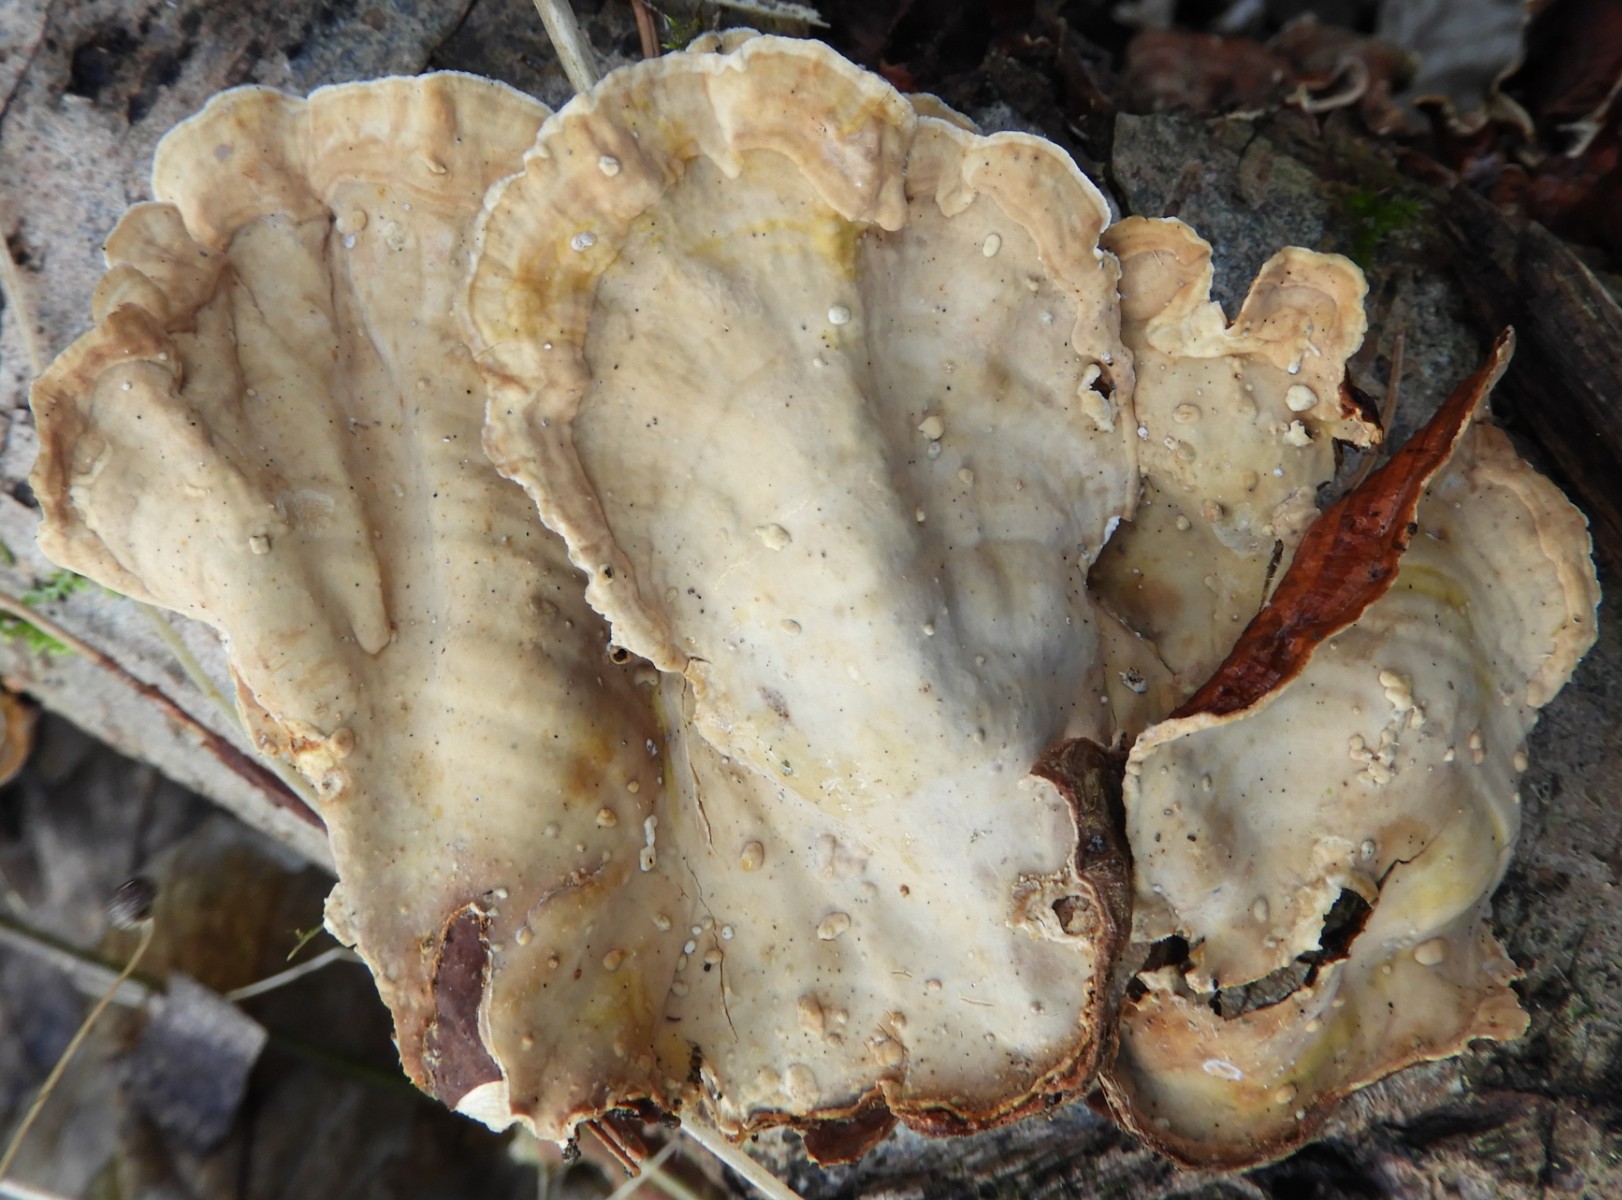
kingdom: Fungi
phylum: Basidiomycota
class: Agaricomycetes
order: Russulales
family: Stereaceae
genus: Stereum
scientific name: Stereum subtomentosum
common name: smuk lædersvamp
